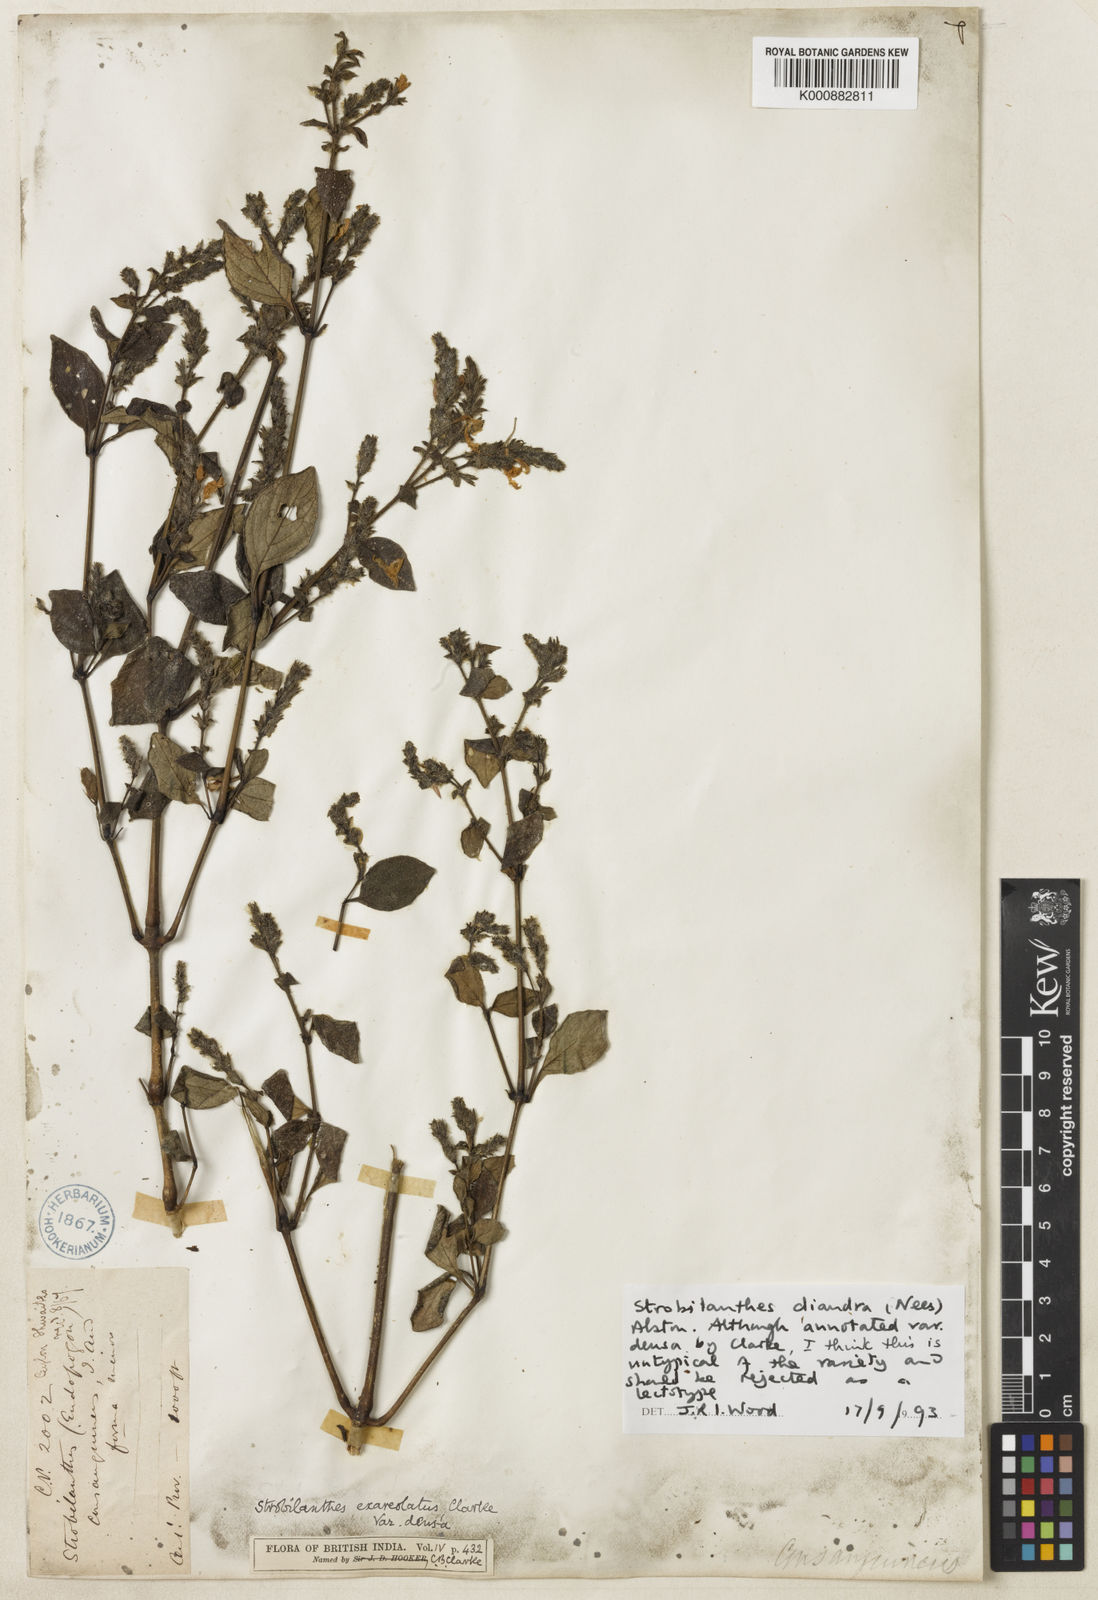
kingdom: Plantae
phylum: Tracheophyta
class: Magnoliopsida
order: Lamiales
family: Acanthaceae
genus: Strobilanthes
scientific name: Strobilanthes diandra
